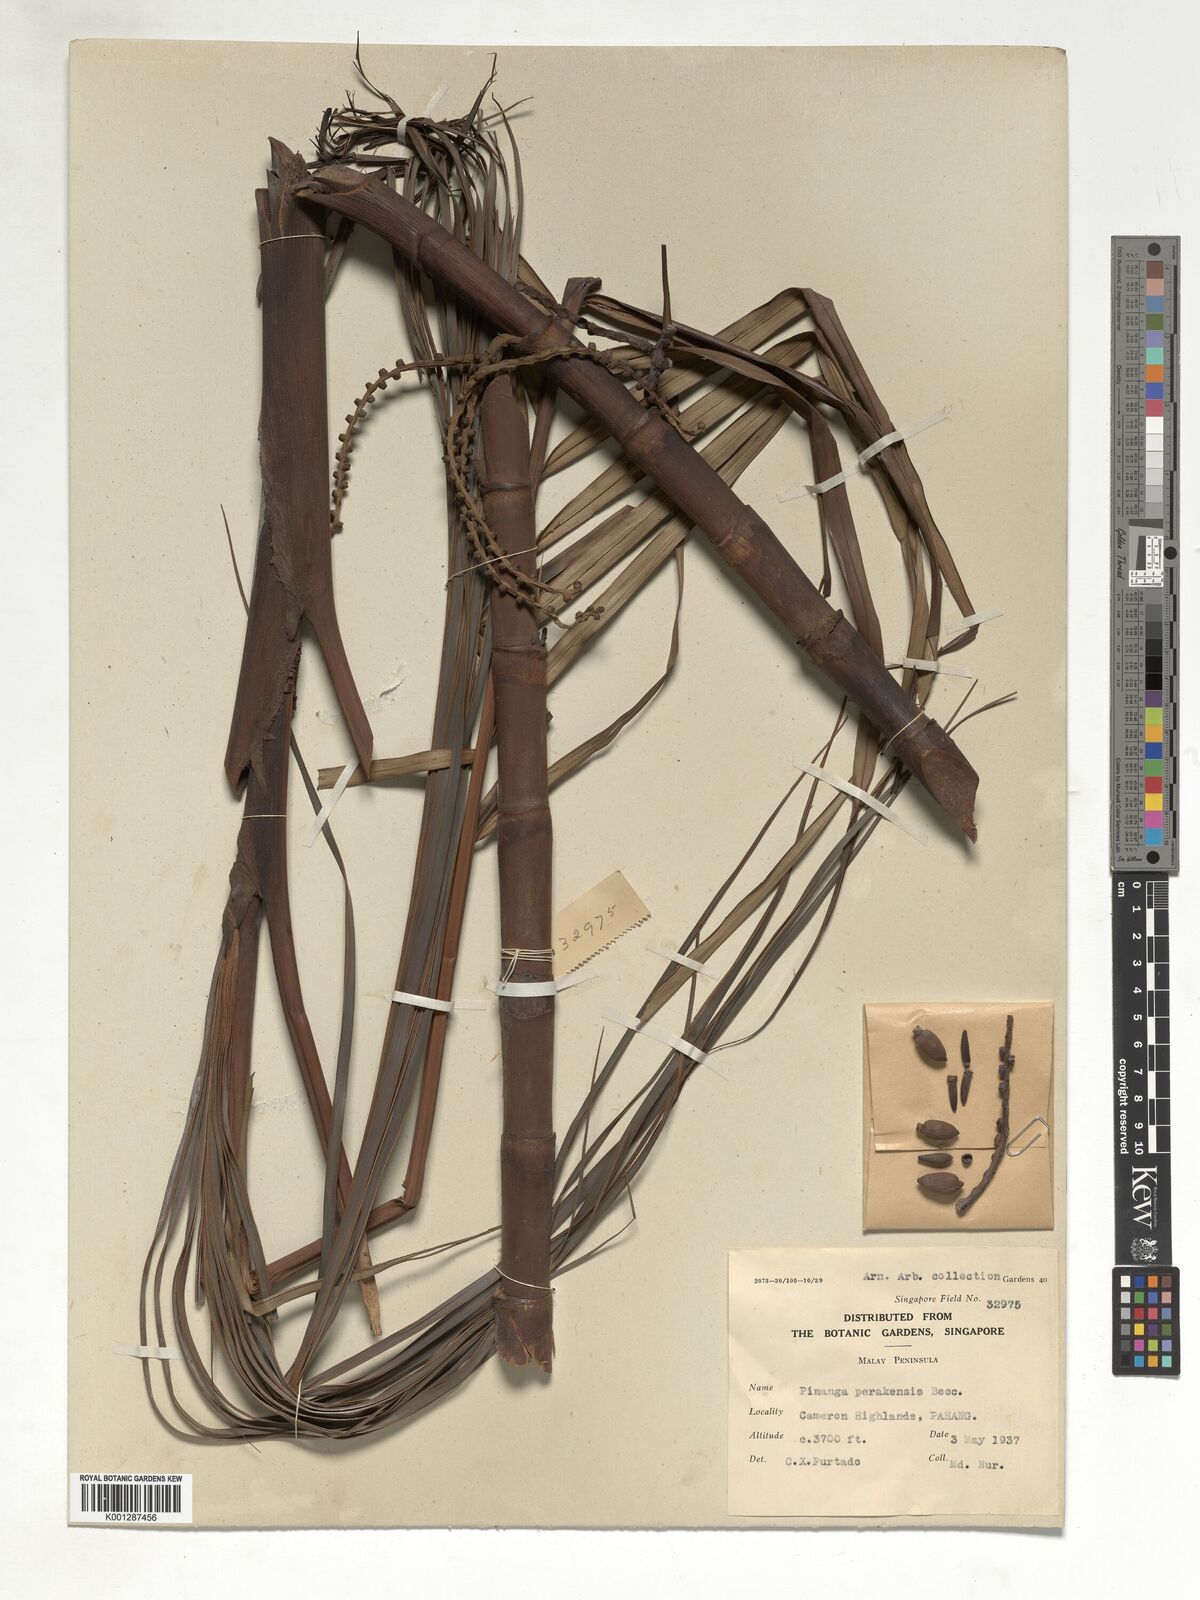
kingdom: Plantae
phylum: Tracheophyta
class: Liliopsida
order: Arecales
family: Arecaceae
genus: Pinanga
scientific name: Pinanga perakensis
